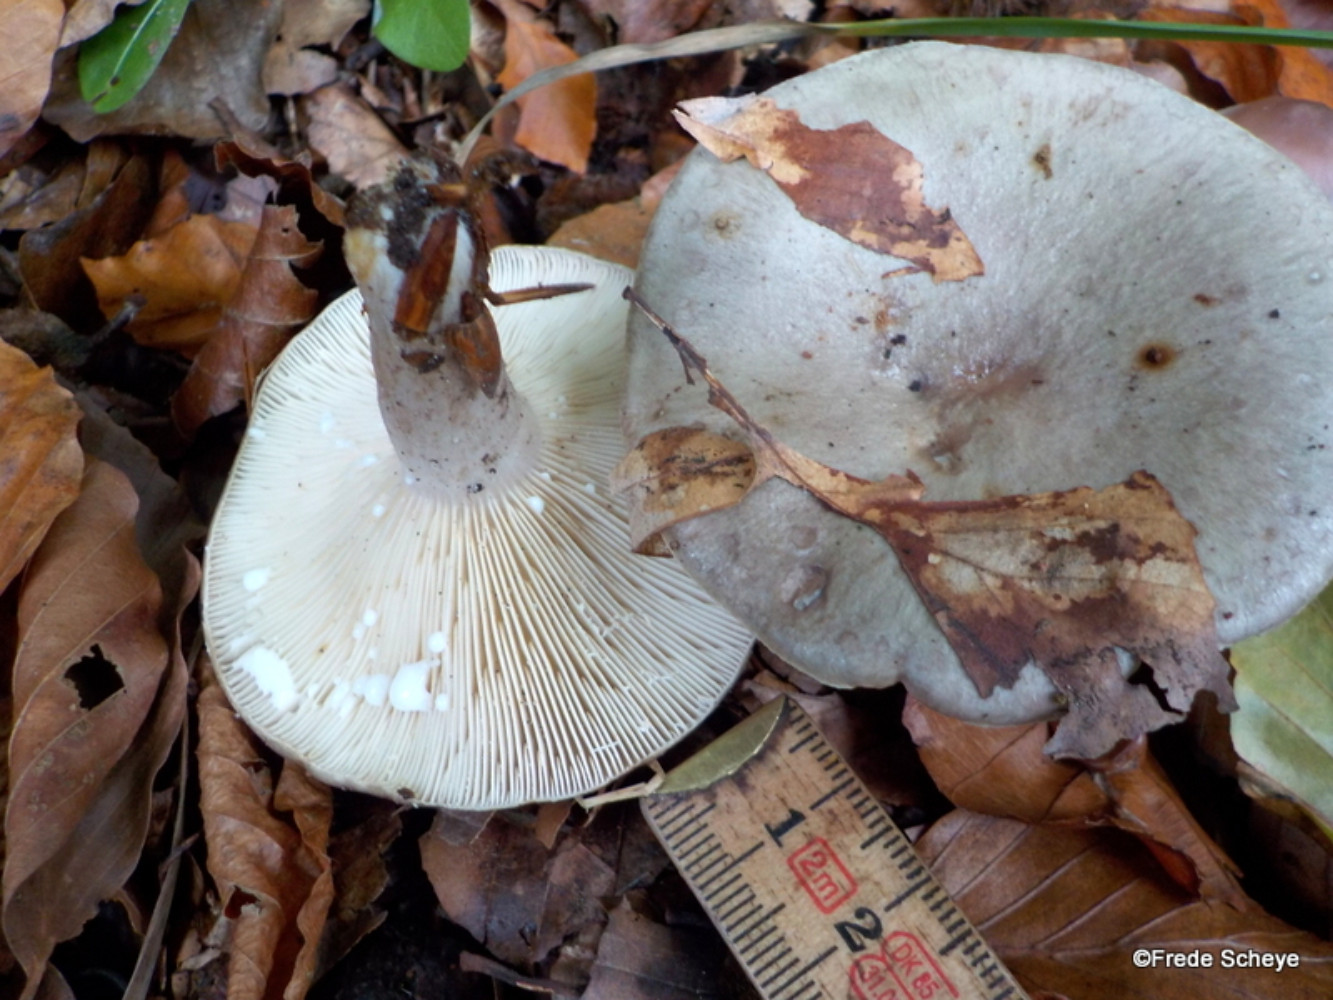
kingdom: Fungi
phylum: Basidiomycota
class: Agaricomycetes
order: Russulales
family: Russulaceae
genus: Lactarius
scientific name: Lactarius blennius
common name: dråbeplettet mælkehat
